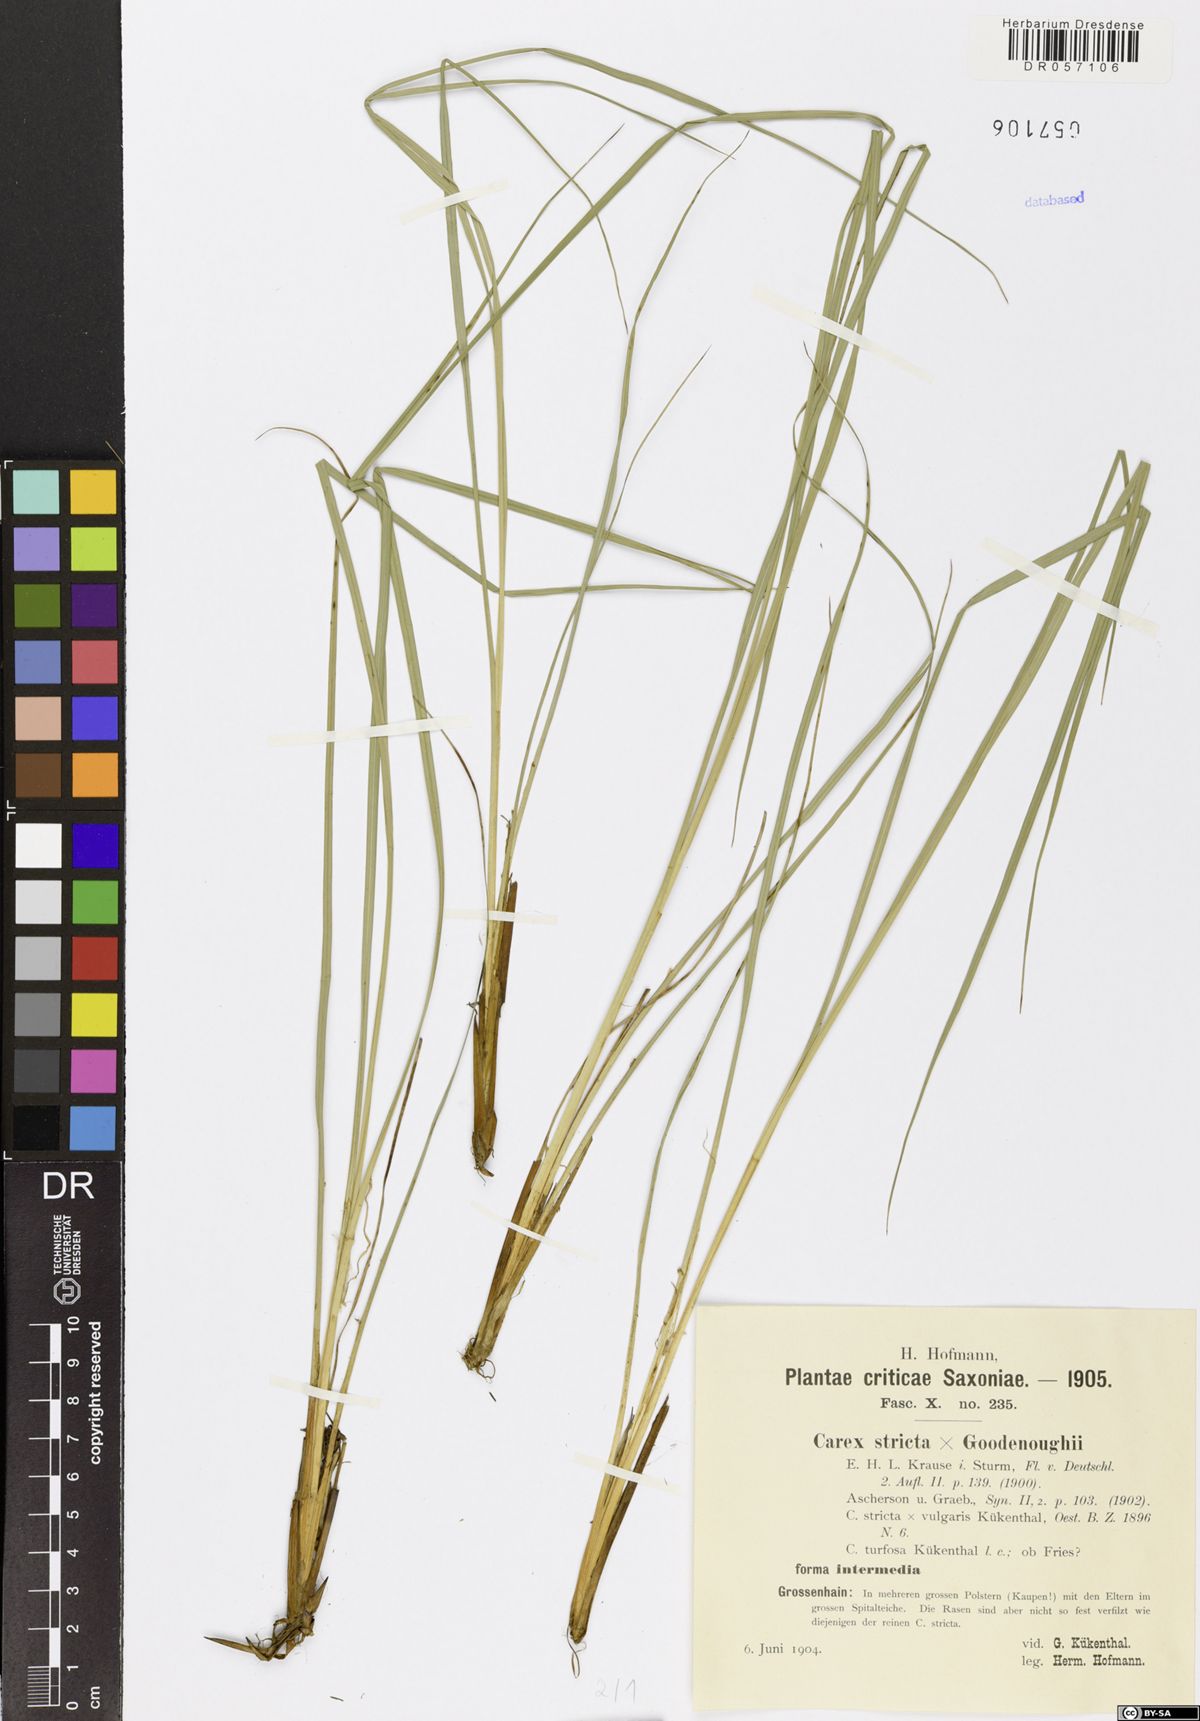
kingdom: Plantae
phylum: Tracheophyta
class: Liliopsida
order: Poales
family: Cyperaceae
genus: Carex
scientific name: Carex turfosa
